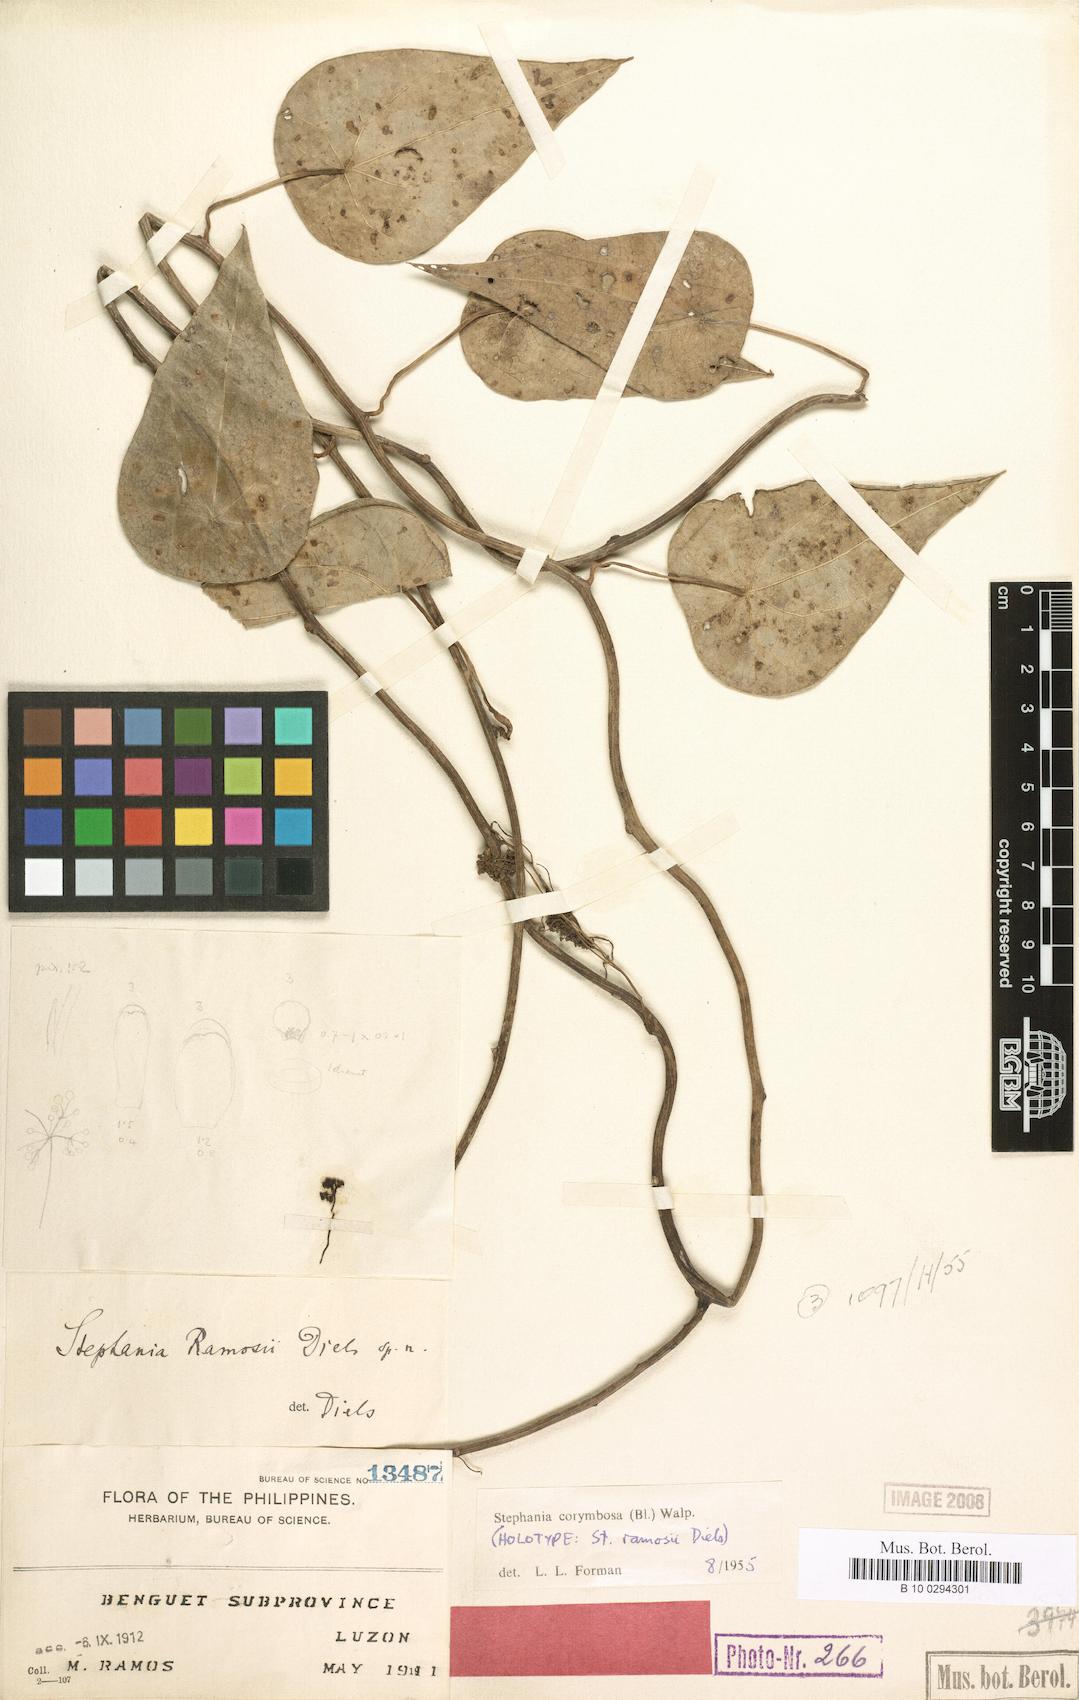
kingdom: Plantae
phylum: Tracheophyta
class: Magnoliopsida
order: Ranunculales
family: Menispermaceae
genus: Stephania
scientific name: Stephania corymbosa
